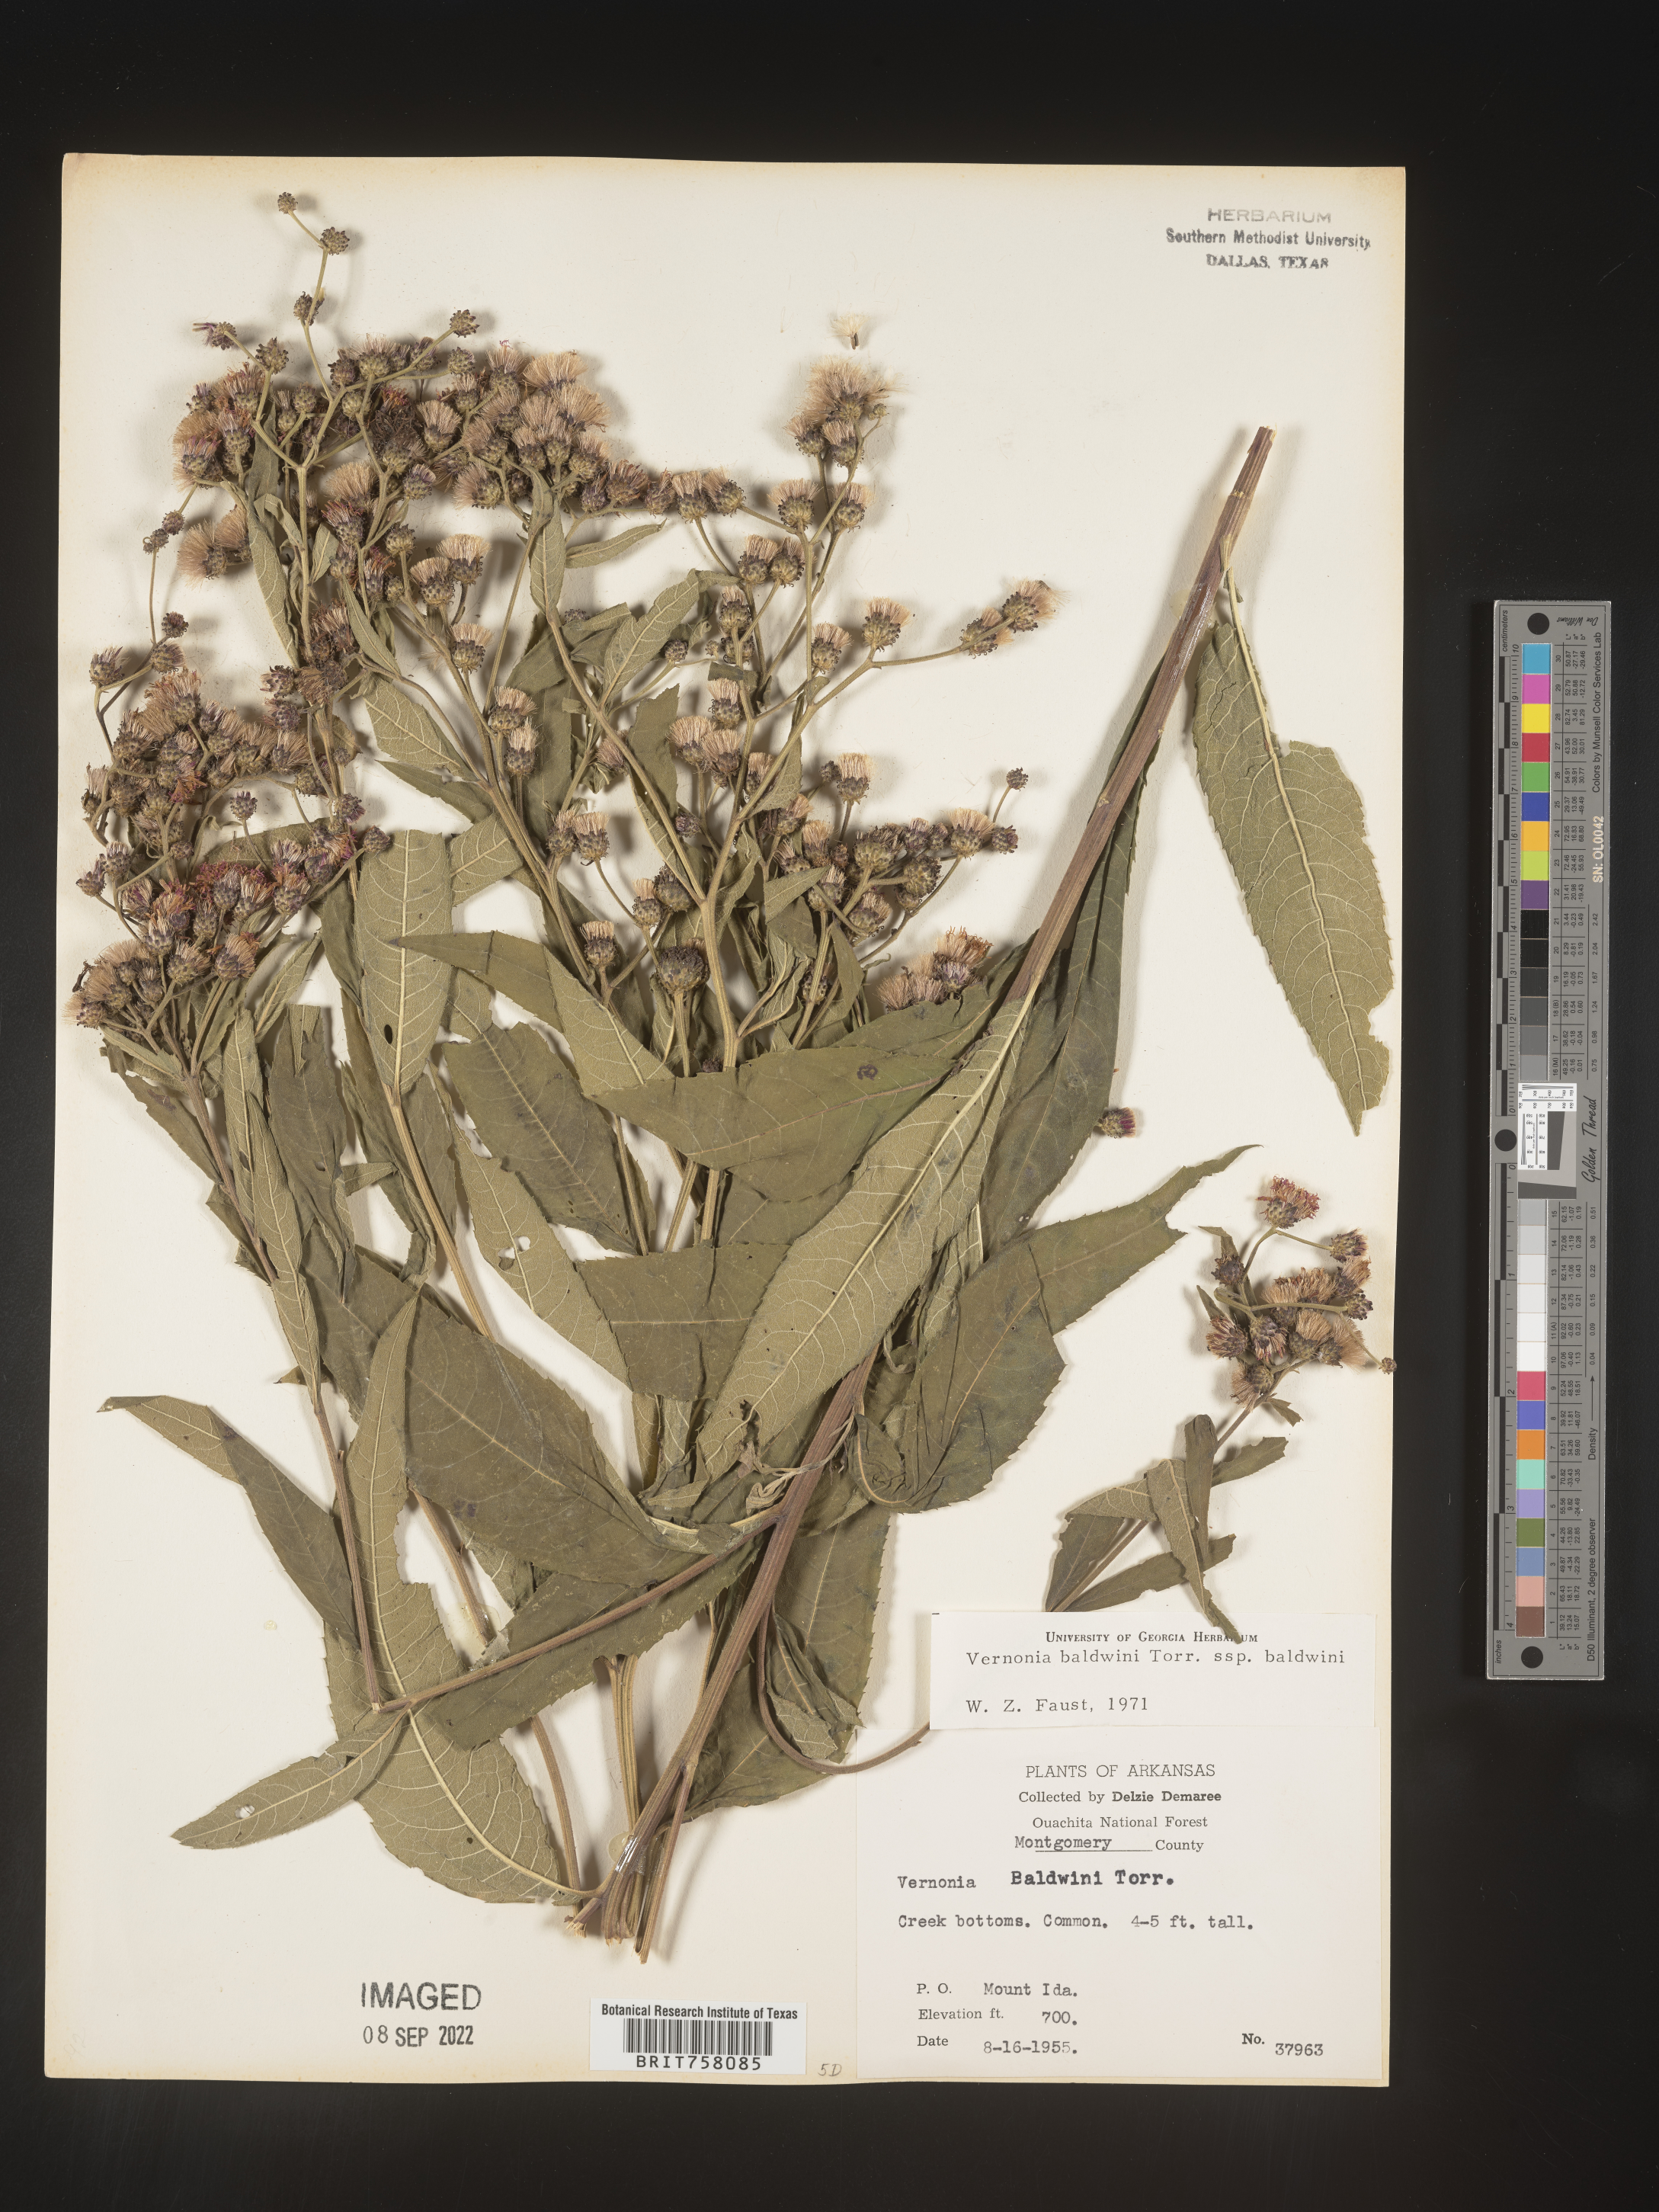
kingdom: Plantae
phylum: Tracheophyta
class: Magnoliopsida
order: Asterales
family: Asteraceae
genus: Vernonia
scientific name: Vernonia baldwinii
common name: Western ironweed
